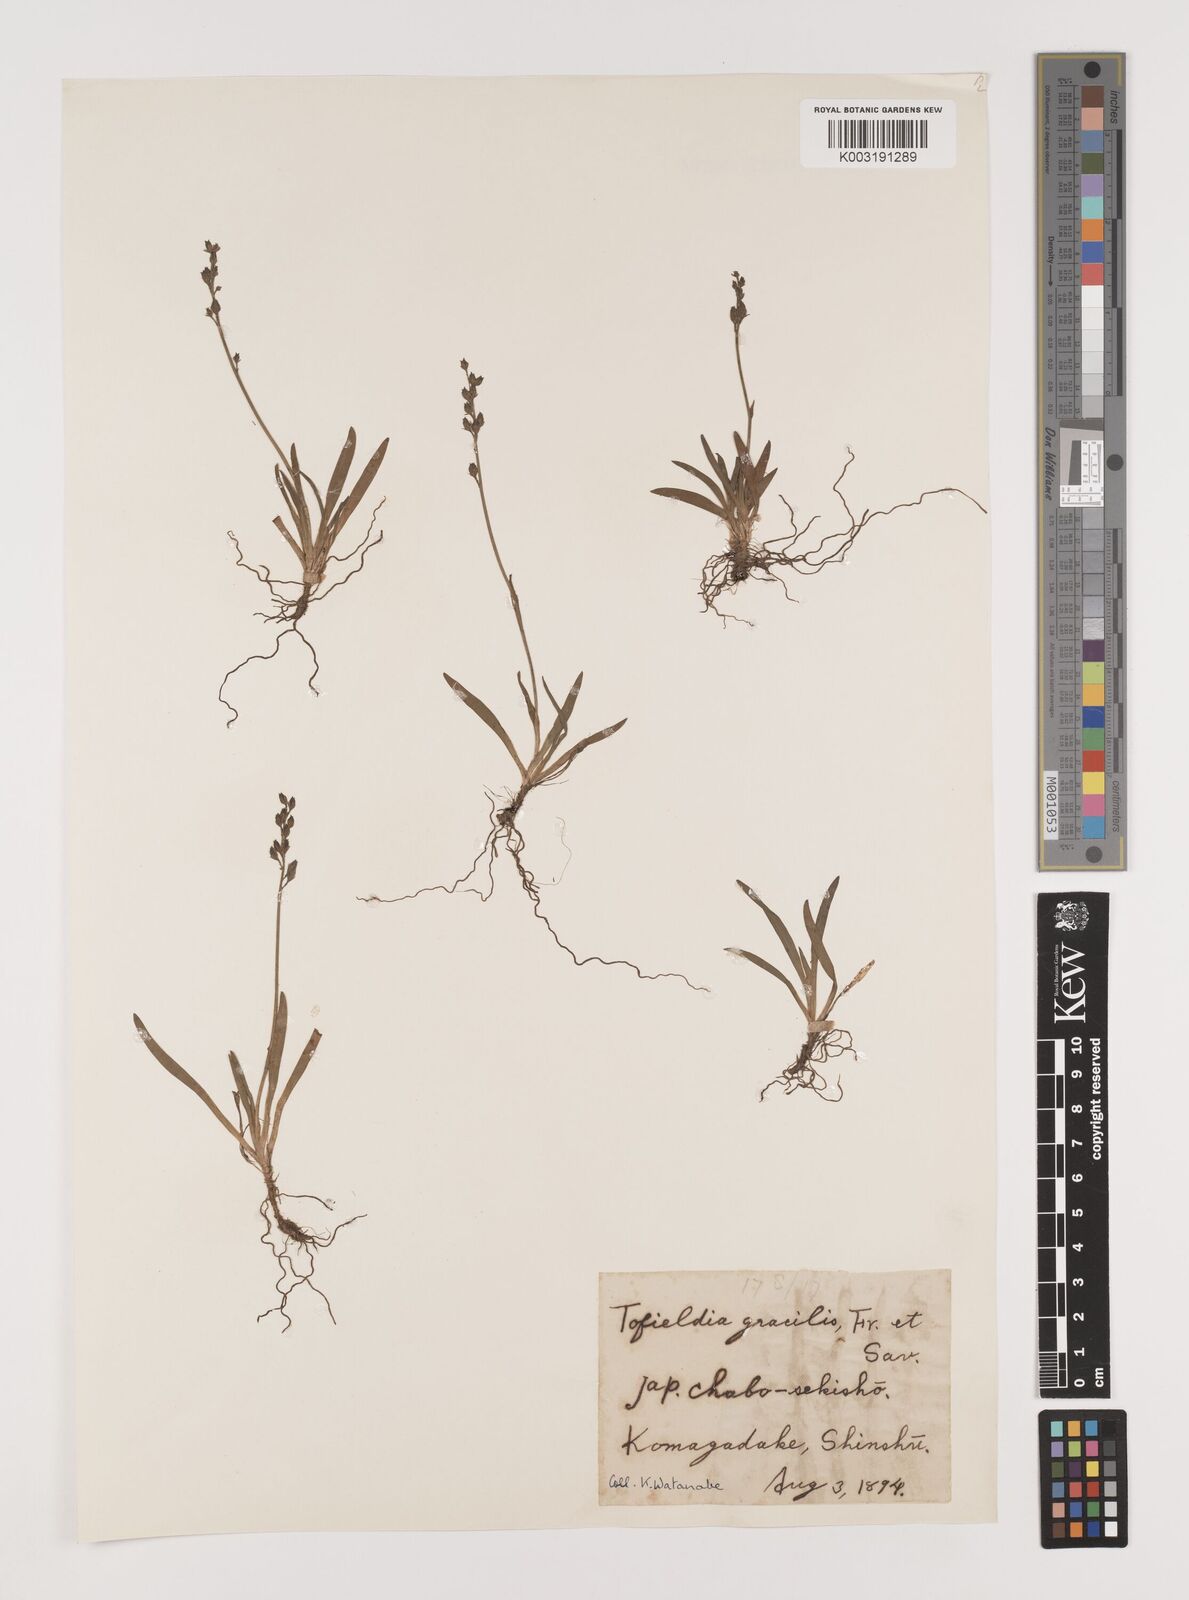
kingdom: Plantae
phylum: Tracheophyta
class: Liliopsida
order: Alismatales
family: Tofieldiaceae
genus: Tofieldia
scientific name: Tofieldia coccinea
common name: Northern false asphodel
